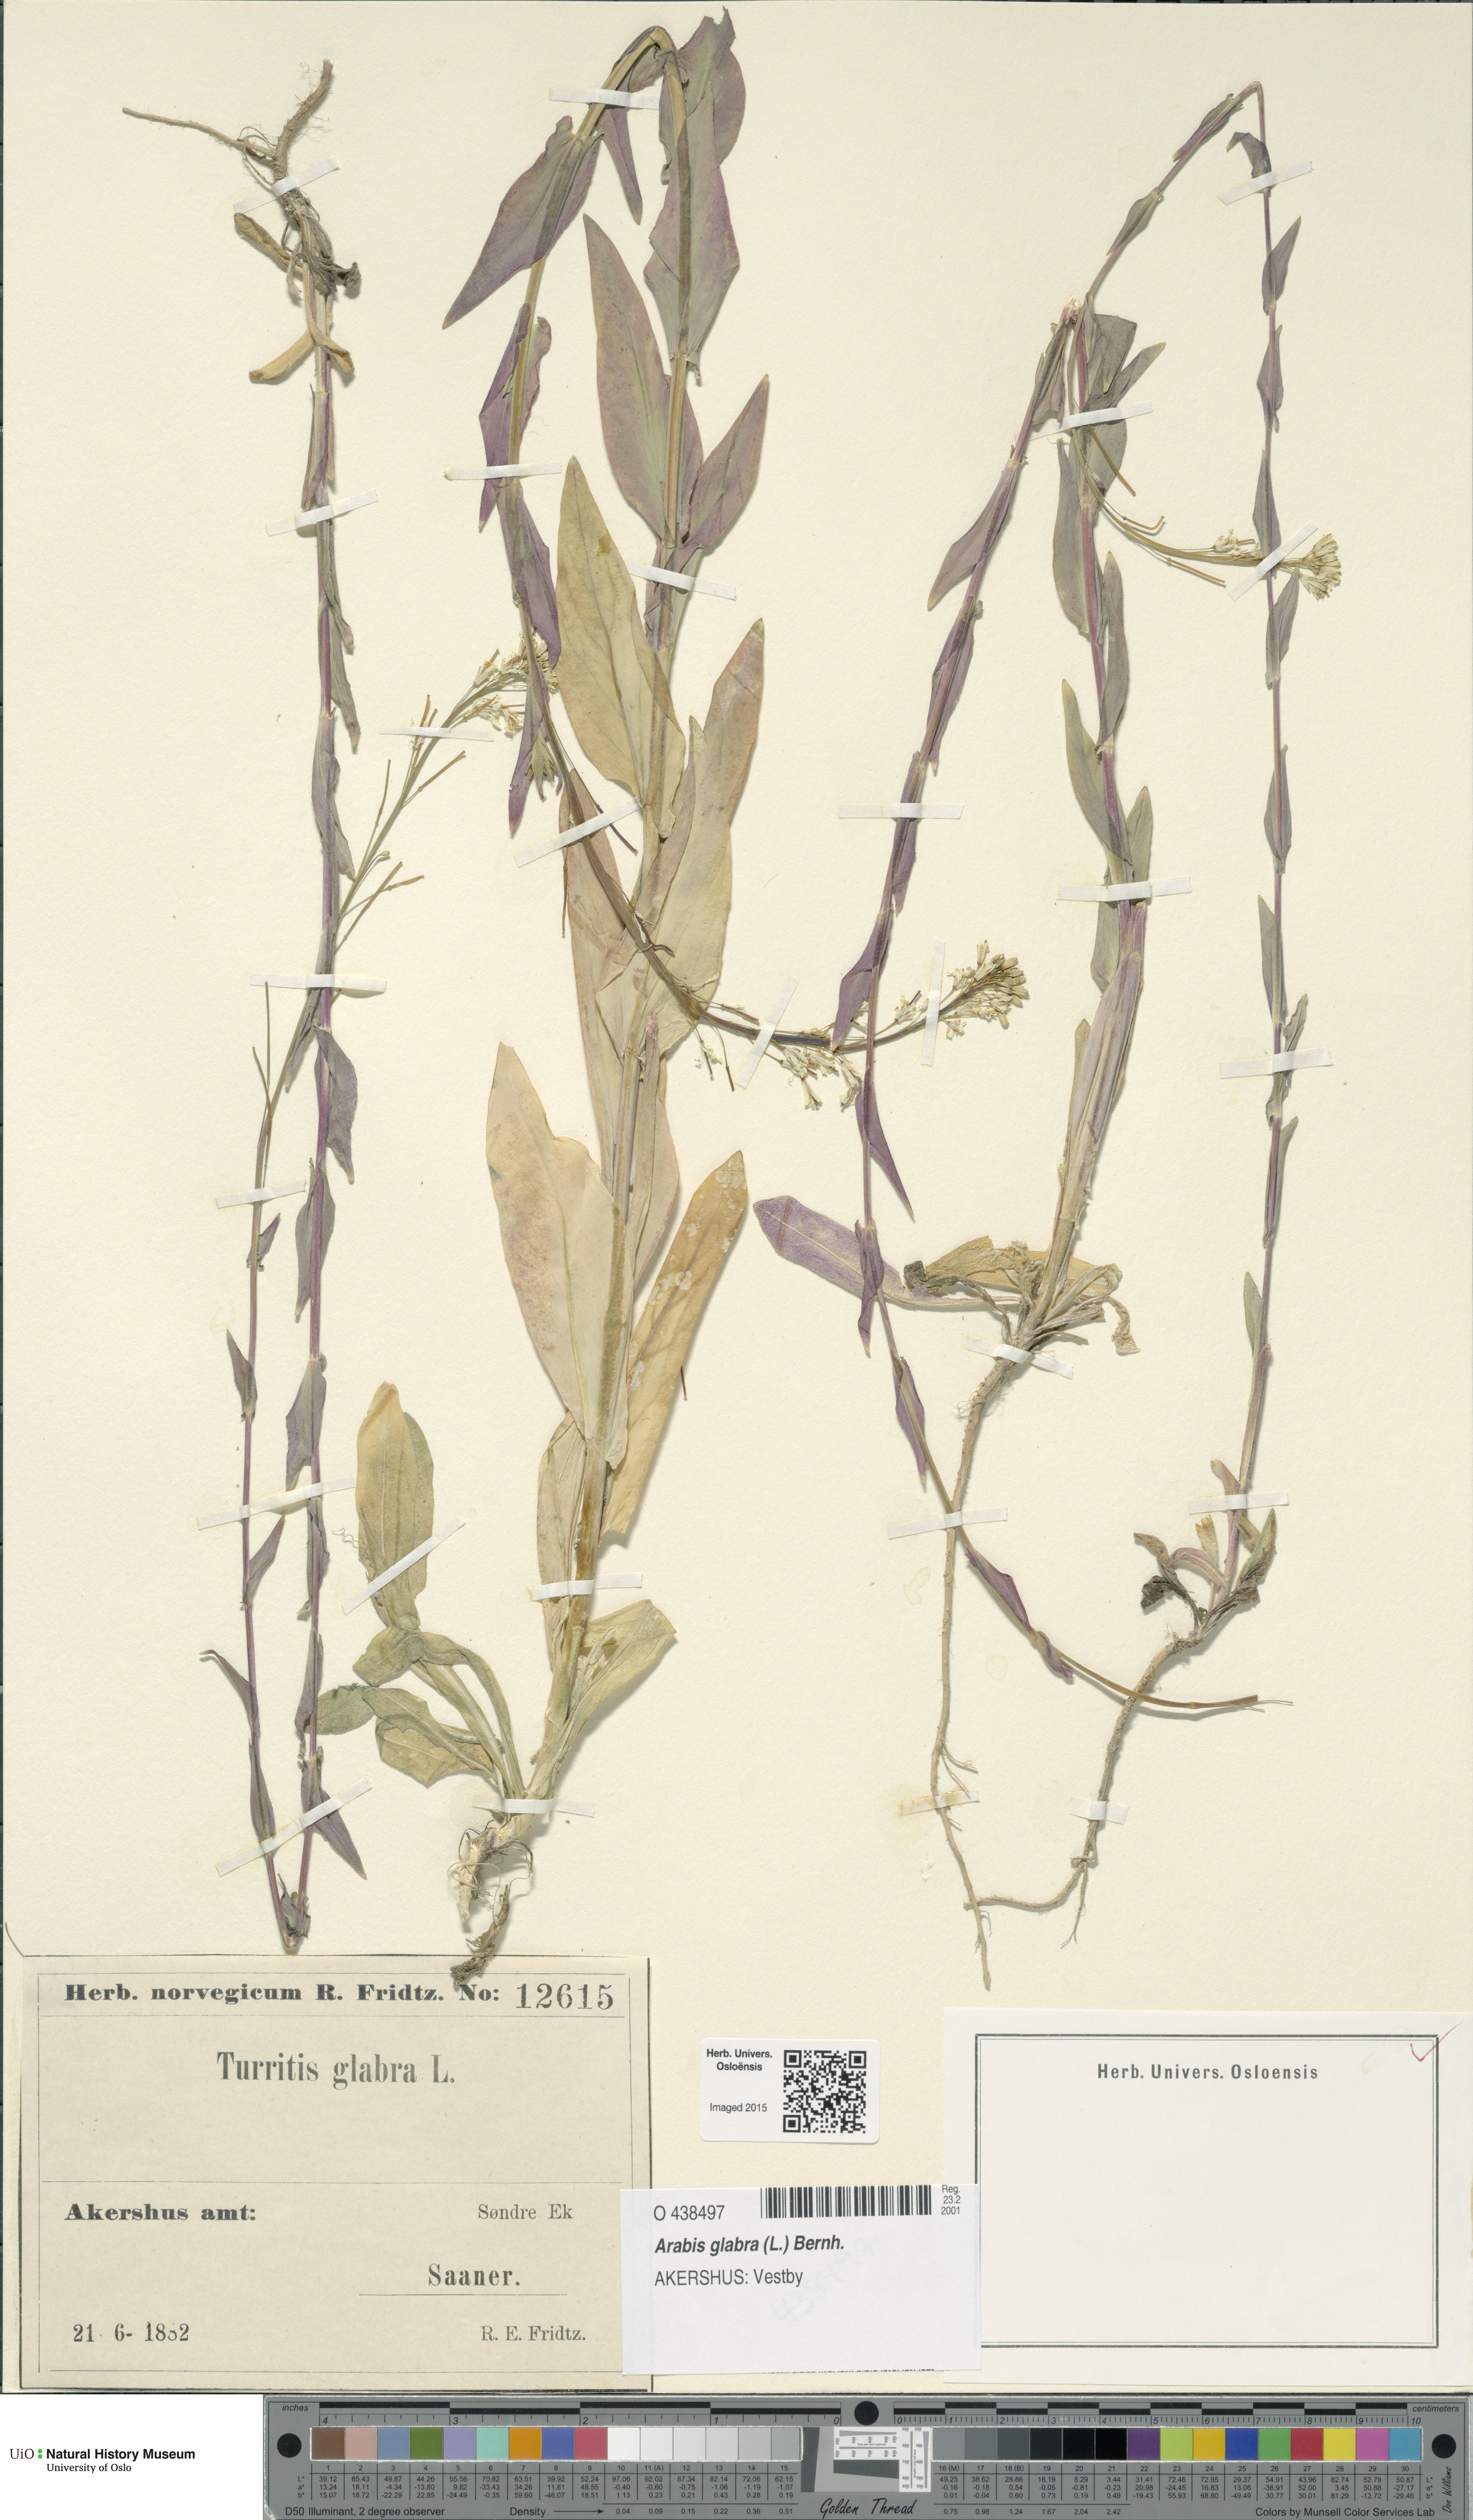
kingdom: Plantae
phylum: Tracheophyta
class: Magnoliopsida
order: Brassicales
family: Brassicaceae
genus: Turritis
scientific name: Turritis glabra
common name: Tower rockcress
